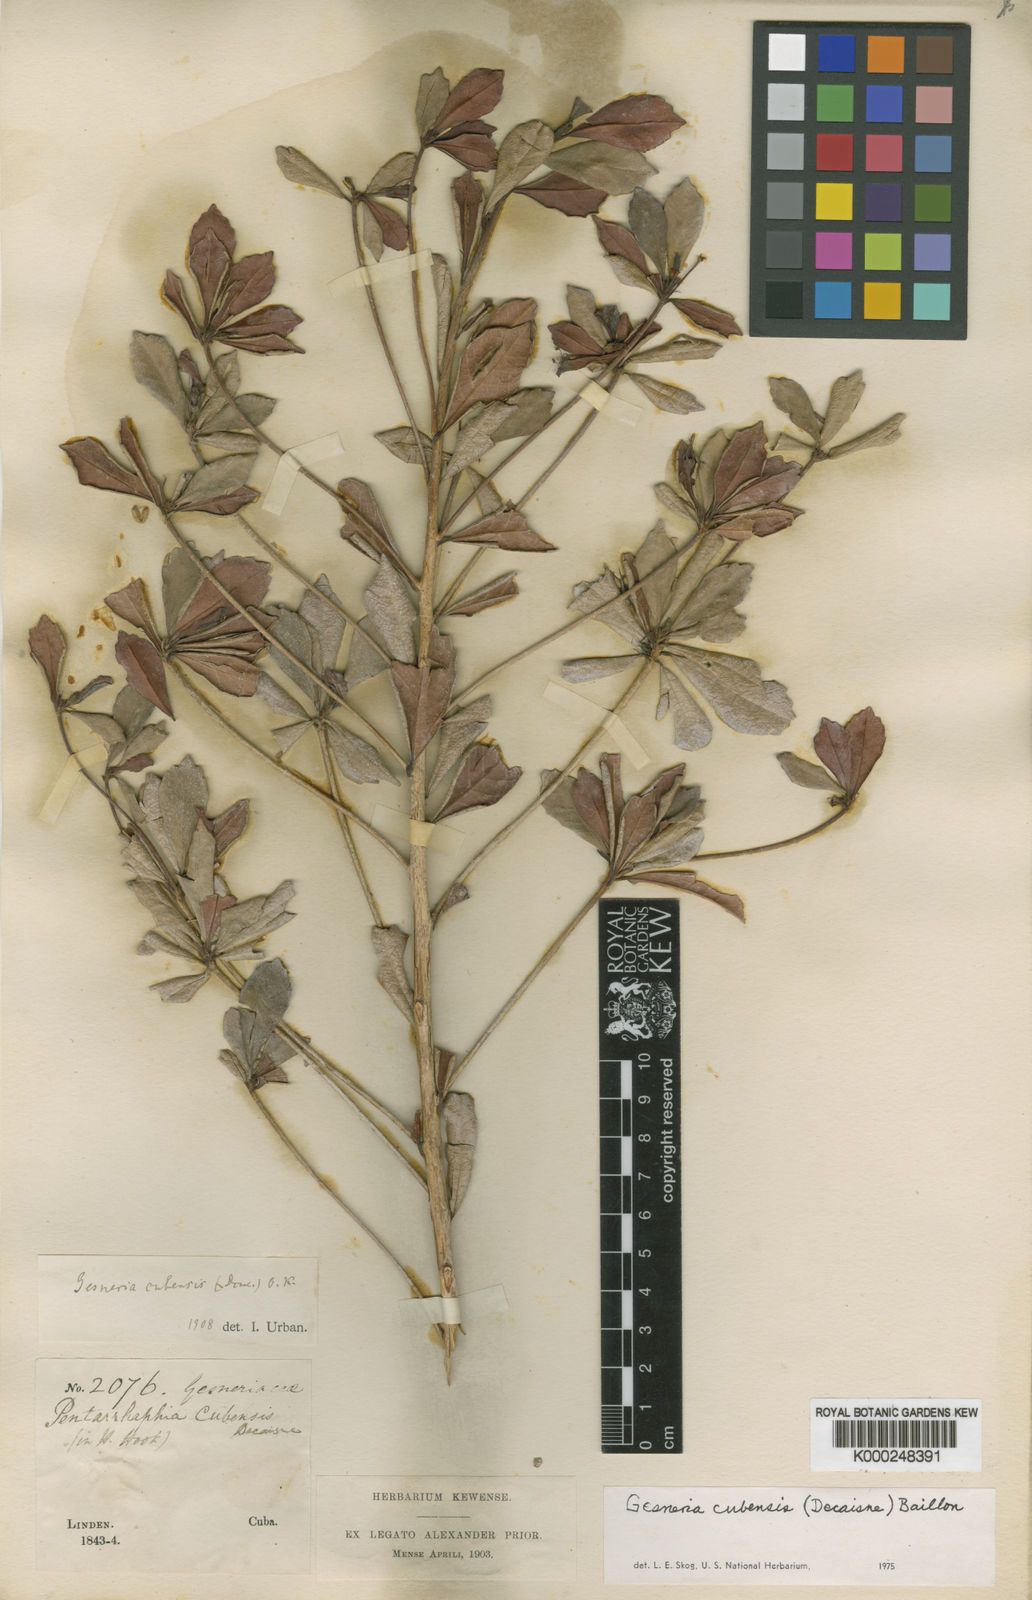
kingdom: Plantae
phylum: Tracheophyta
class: Magnoliopsida
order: Lamiales
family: Gesneriaceae
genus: Gesneria
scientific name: Gesneria cubensis
